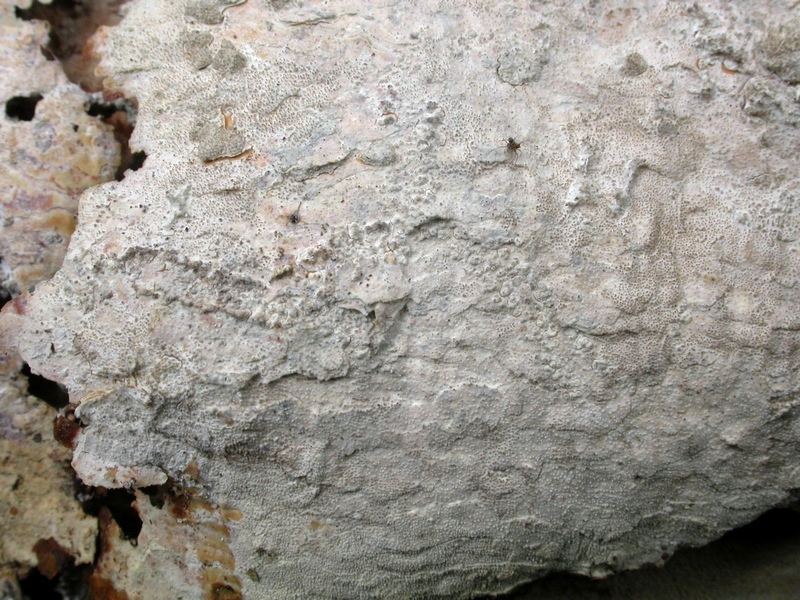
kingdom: Fungi
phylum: Basidiomycota
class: Agaricomycetes
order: Hymenochaetales
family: Rickenellaceae
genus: Resinicium
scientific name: Resinicium bicolor
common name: almindelig vokstand
